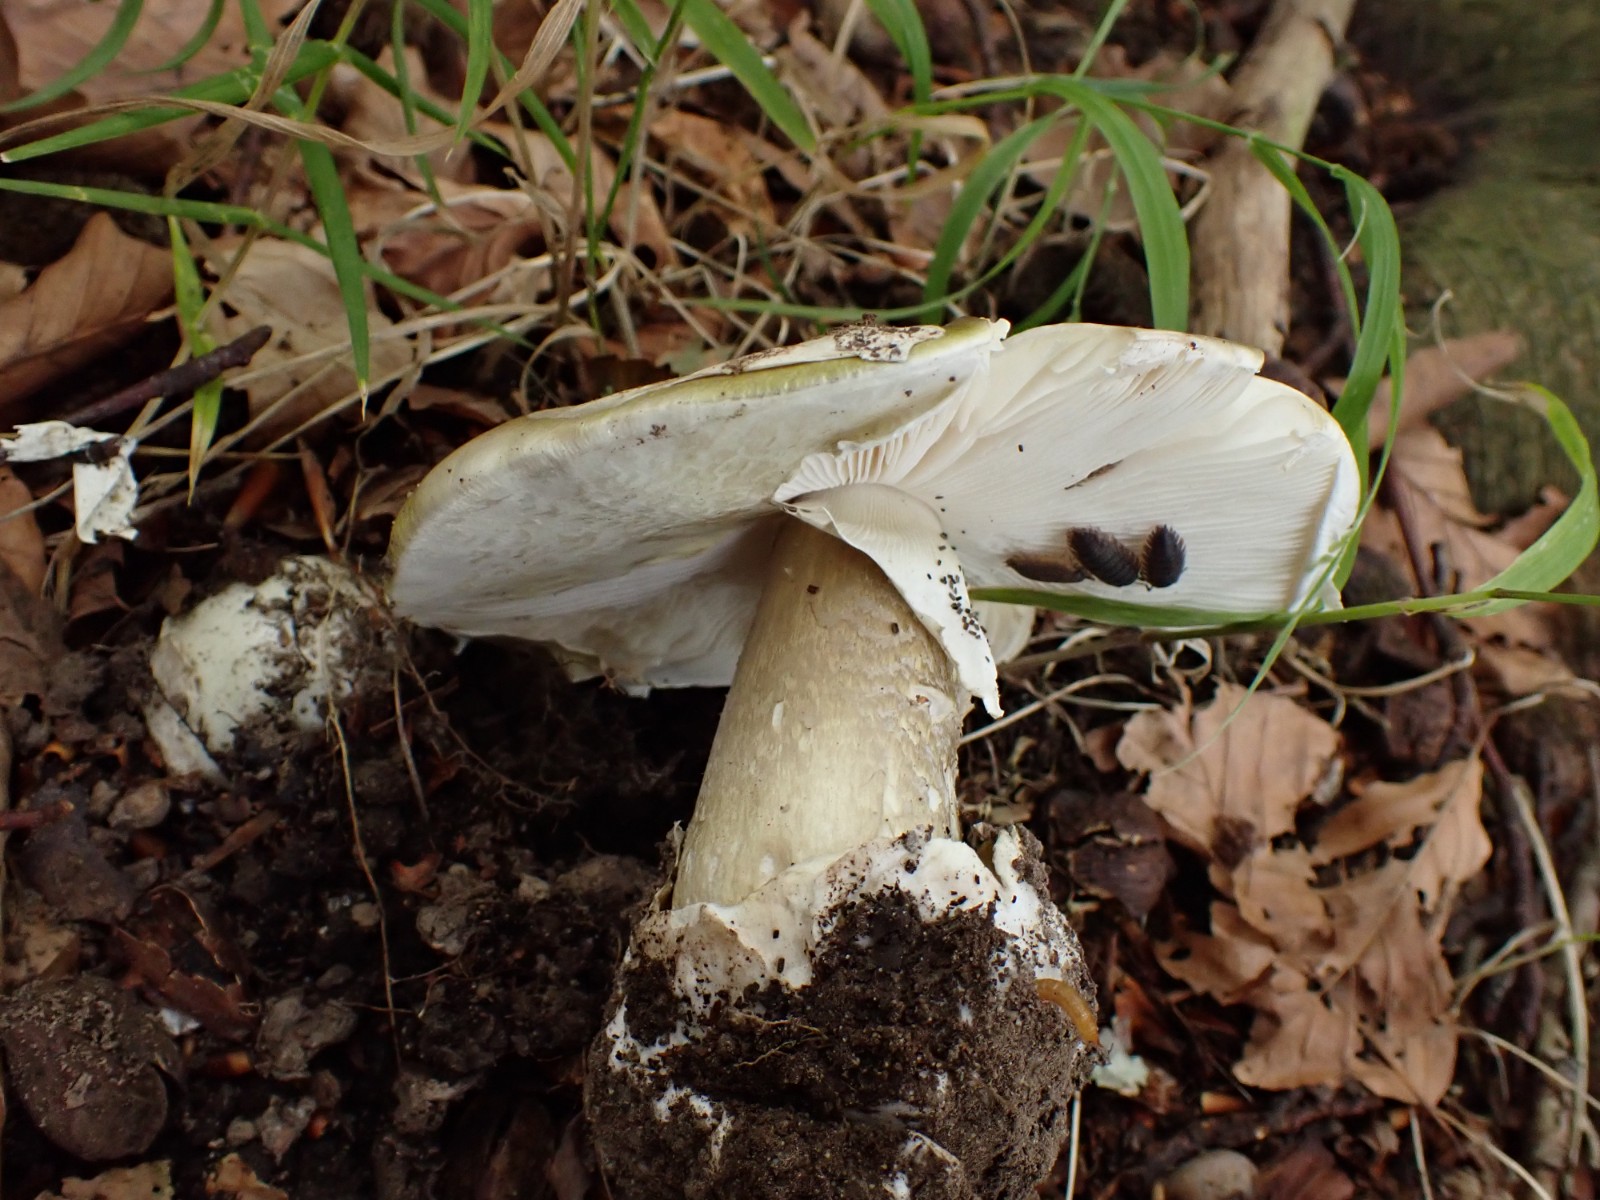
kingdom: Fungi
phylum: Basidiomycota
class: Agaricomycetes
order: Agaricales
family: Amanitaceae
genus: Amanita
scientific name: Amanita phalloides
